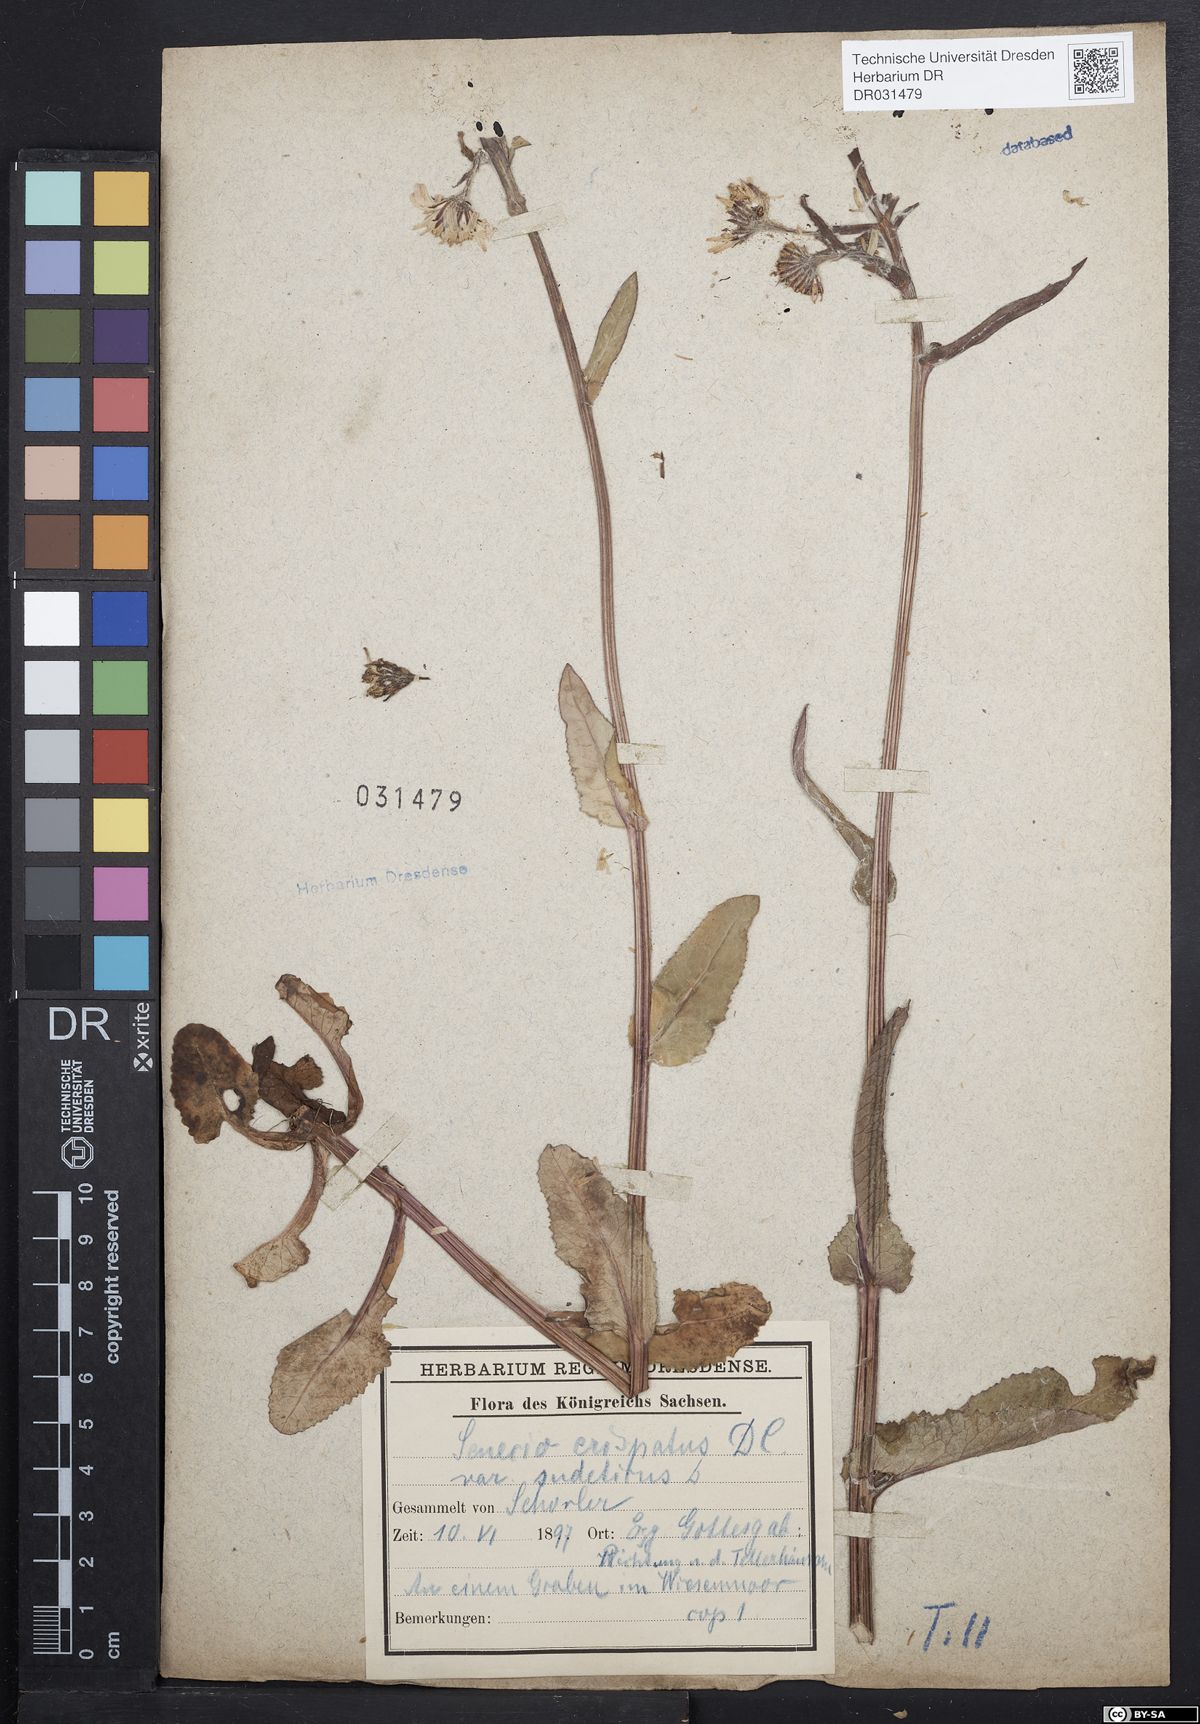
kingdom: Plantae
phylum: Tracheophyta
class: Magnoliopsida
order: Asterales
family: Asteraceae
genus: Tephroseris
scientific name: Tephroseris crispa
